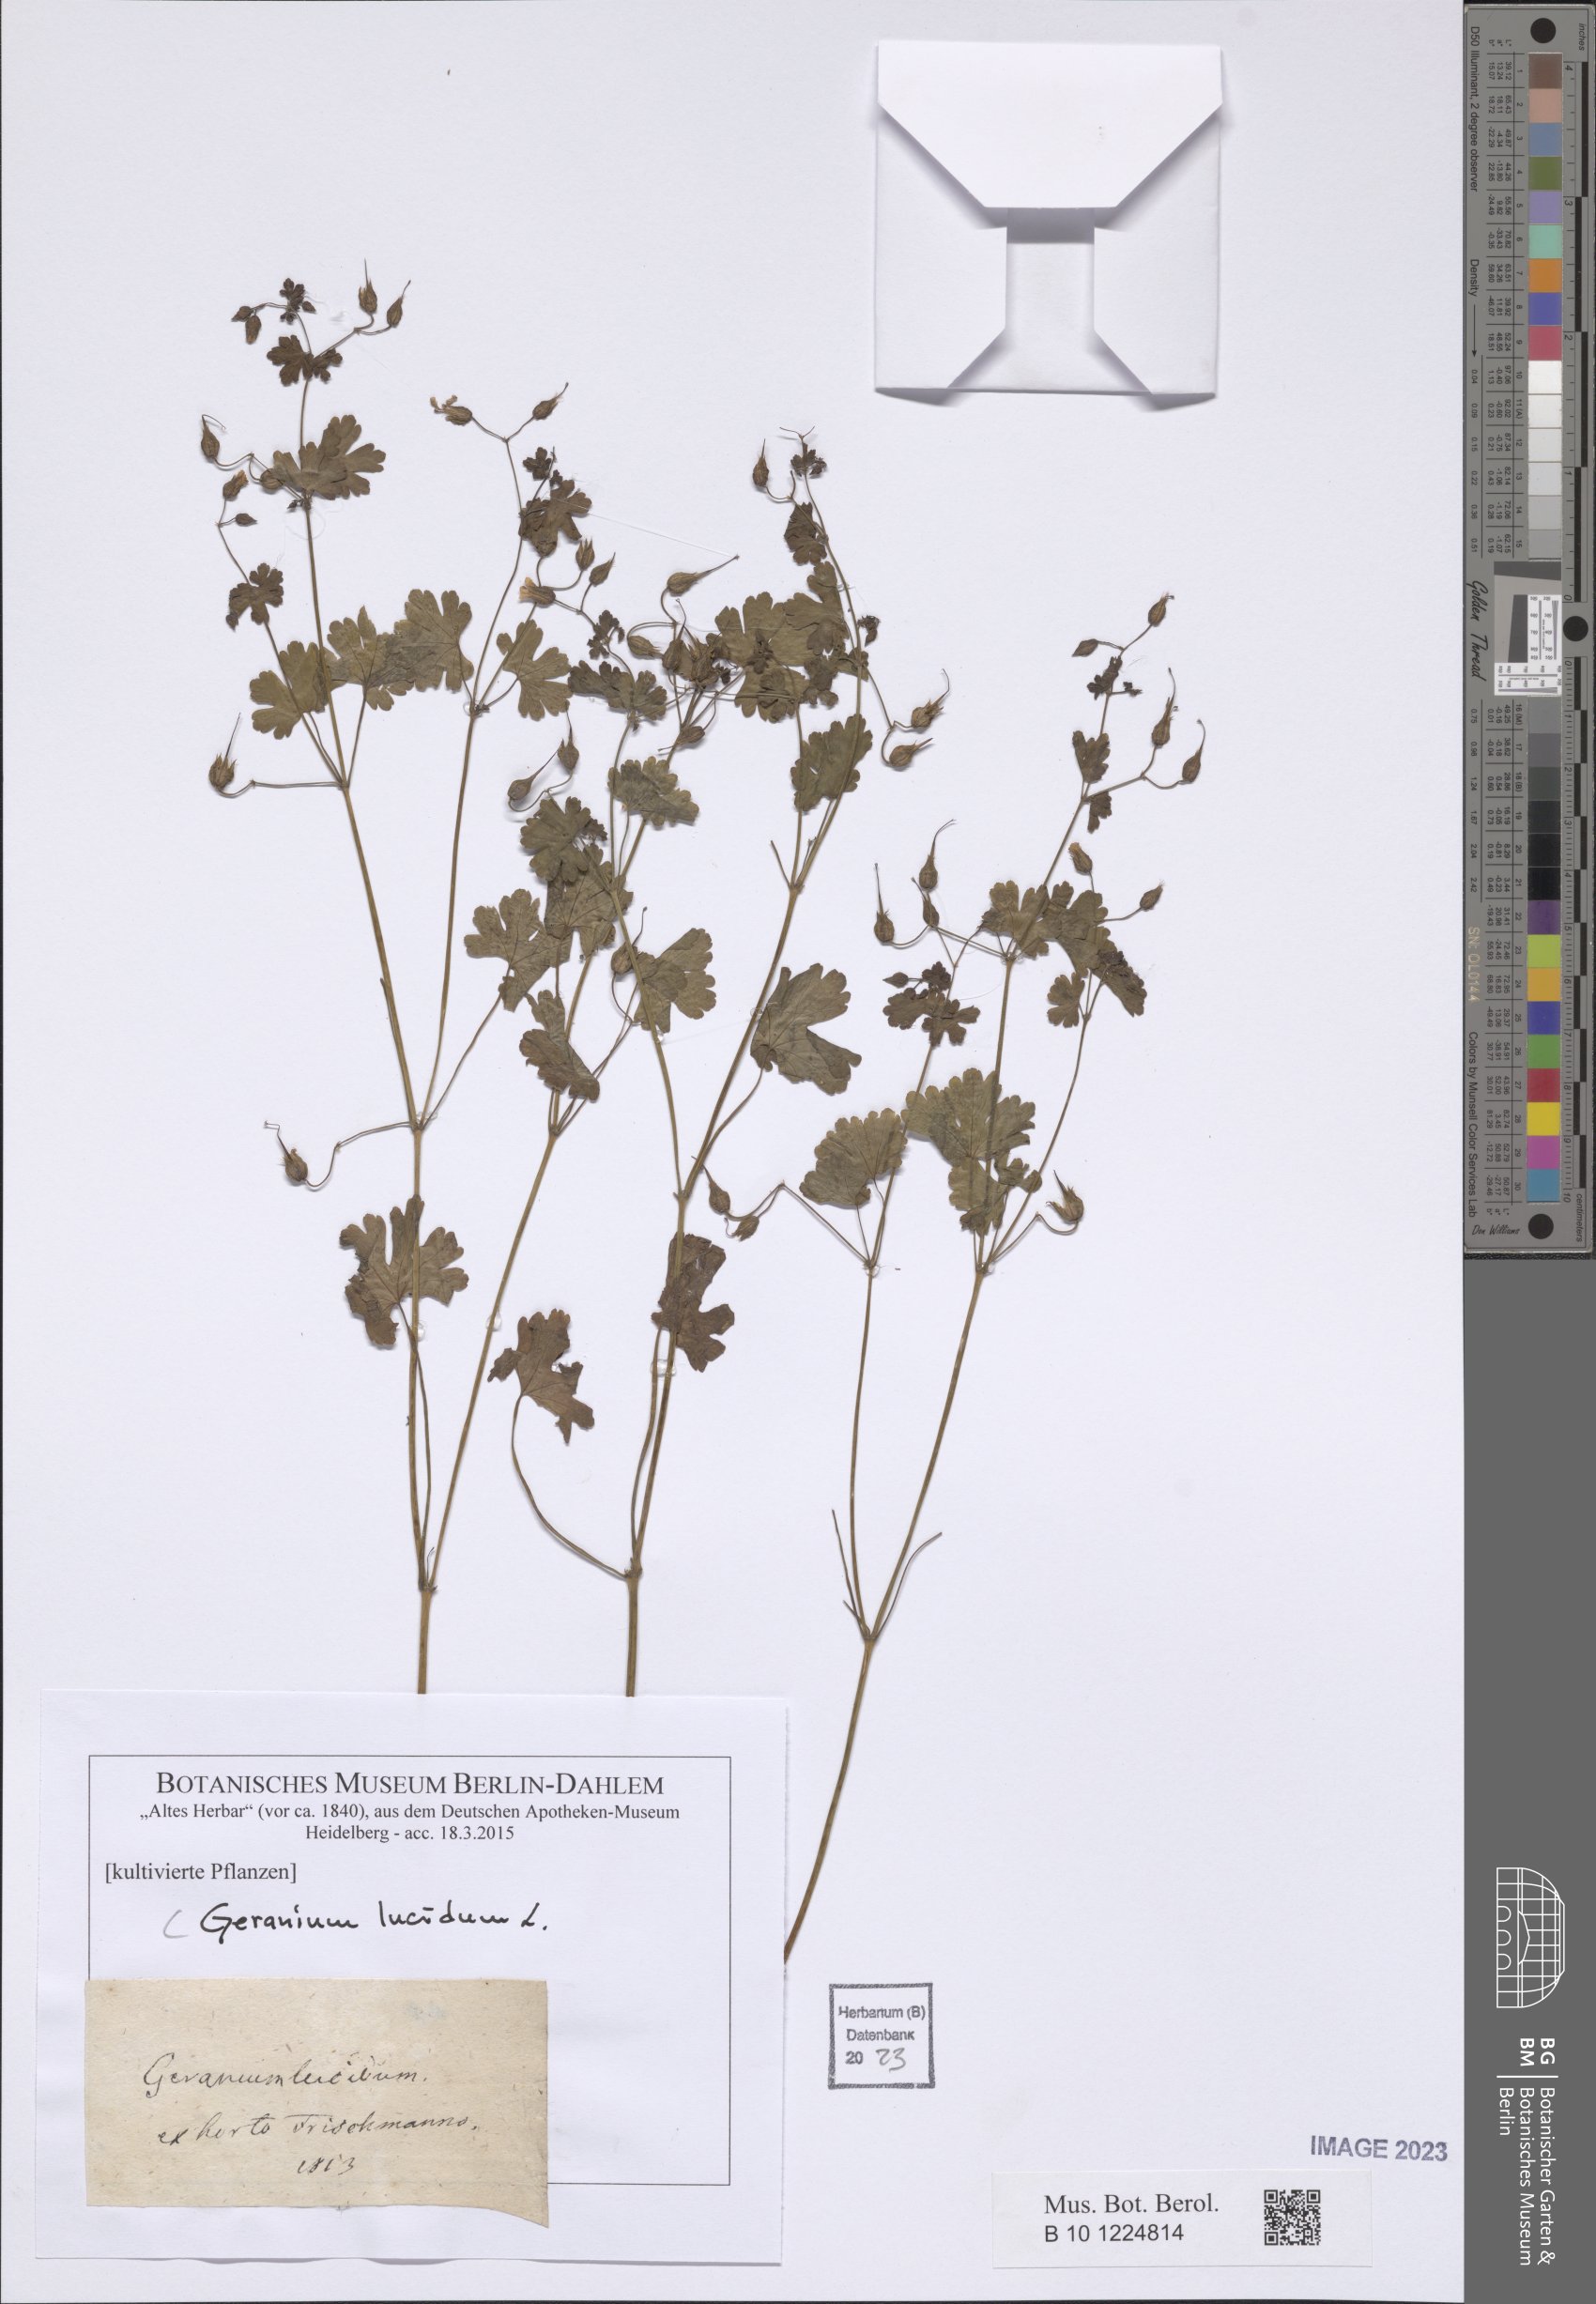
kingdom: Plantae
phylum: Tracheophyta
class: Magnoliopsida
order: Geraniales
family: Geraniaceae
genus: Geranium
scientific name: Geranium lucidum
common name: Shining crane's-bill
